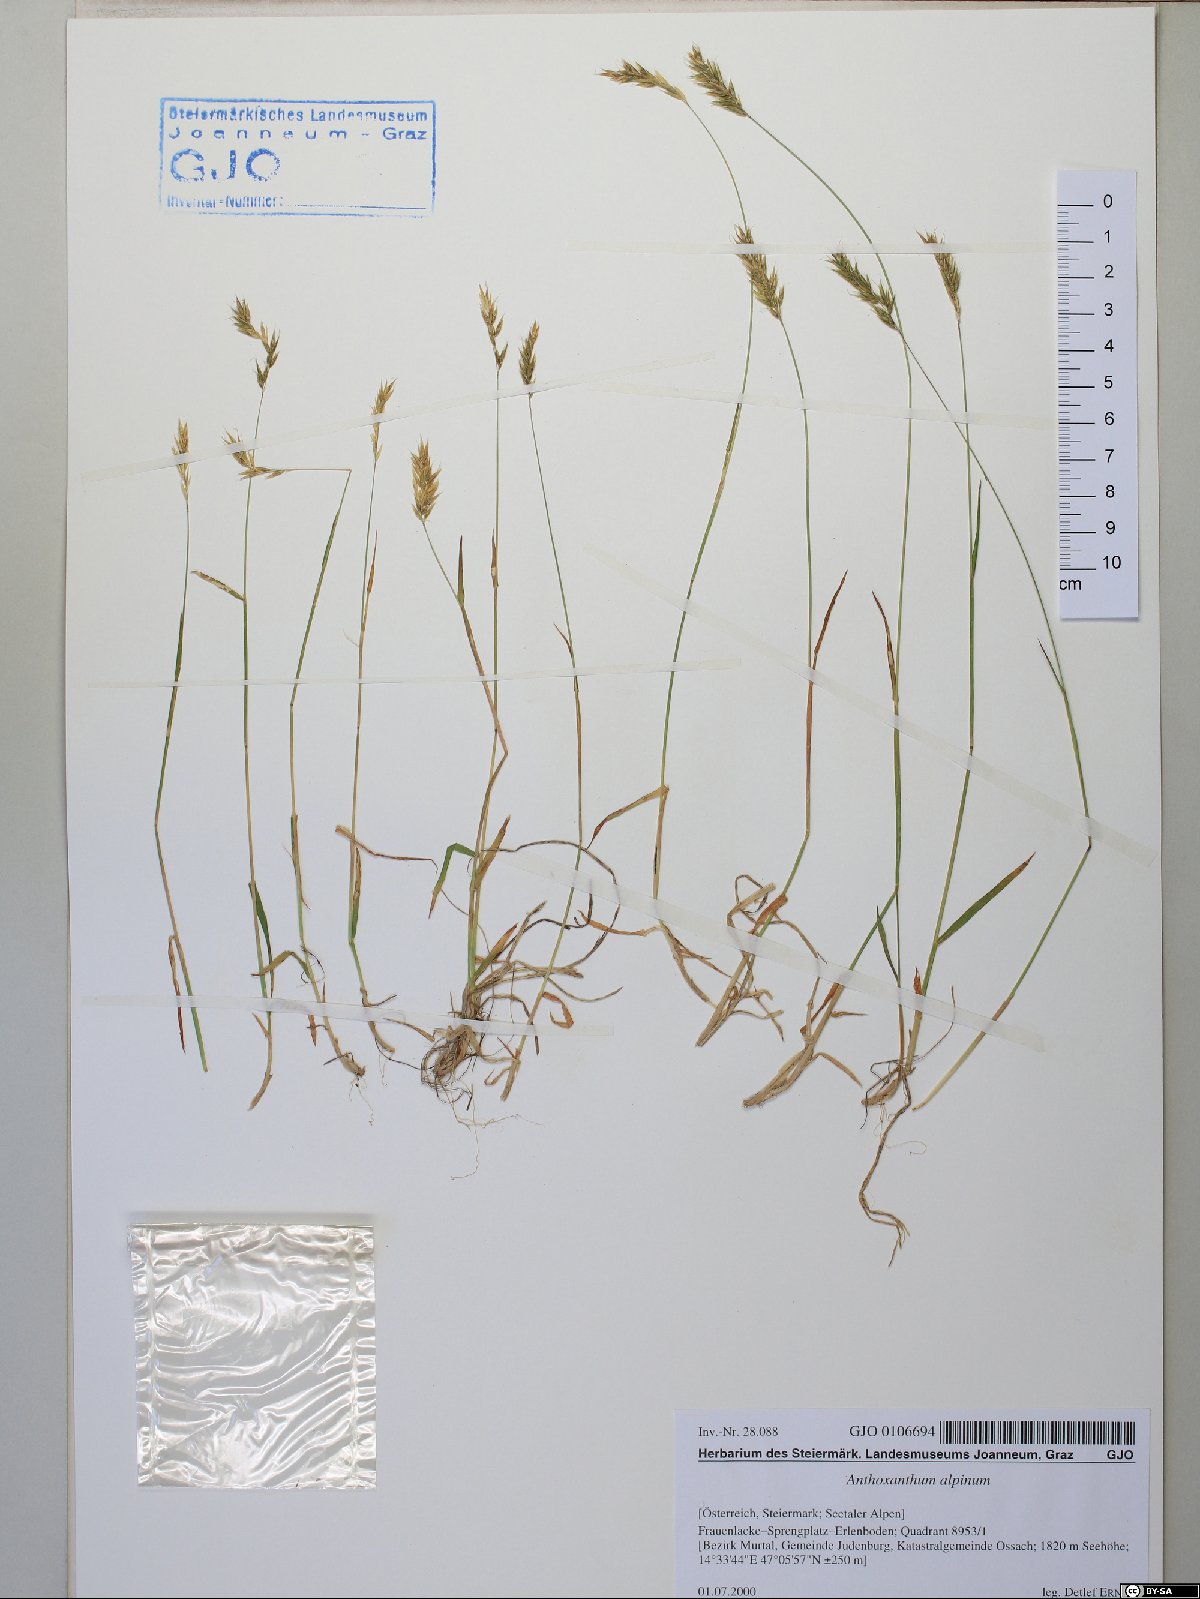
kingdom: Plantae
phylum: Tracheophyta
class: Liliopsida
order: Poales
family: Poaceae
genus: Anthoxanthum
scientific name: Anthoxanthum nipponicum
